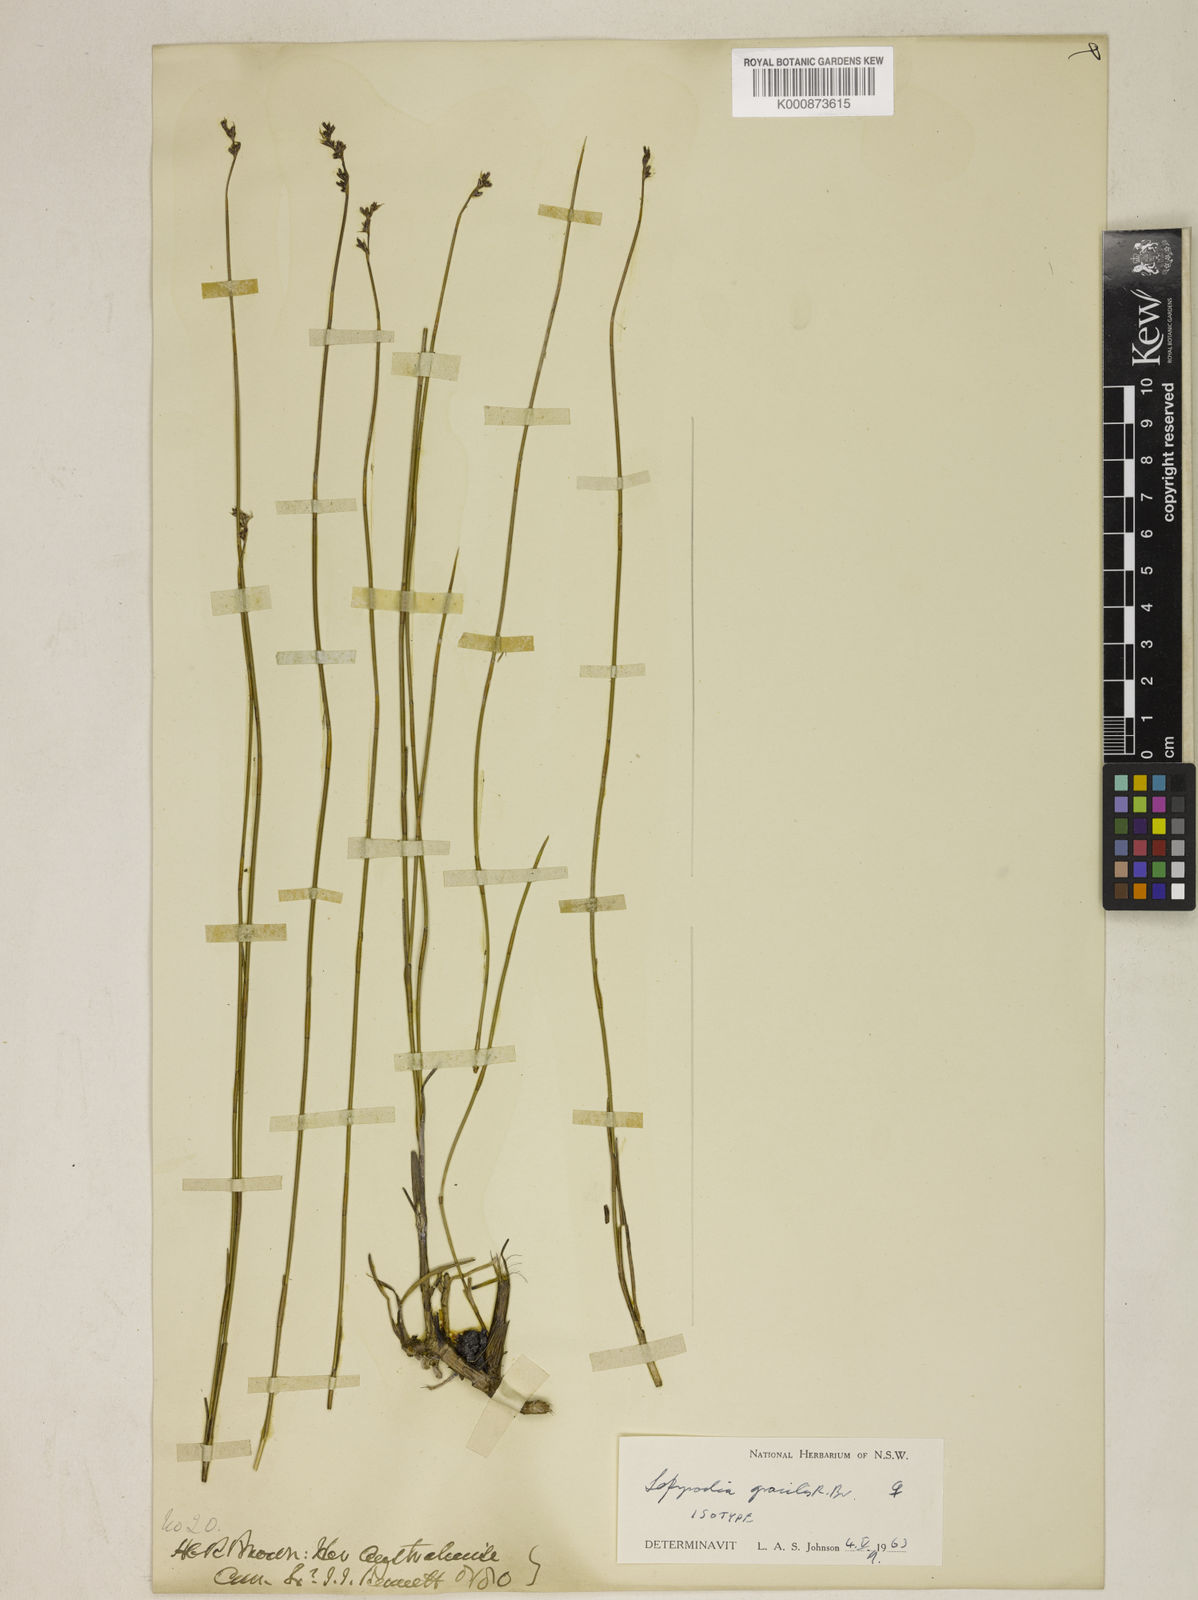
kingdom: Plantae
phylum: Tracheophyta
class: Liliopsida
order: Poales
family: Restionaceae
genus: Sporadanthus
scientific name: Sporadanthus gracilis
